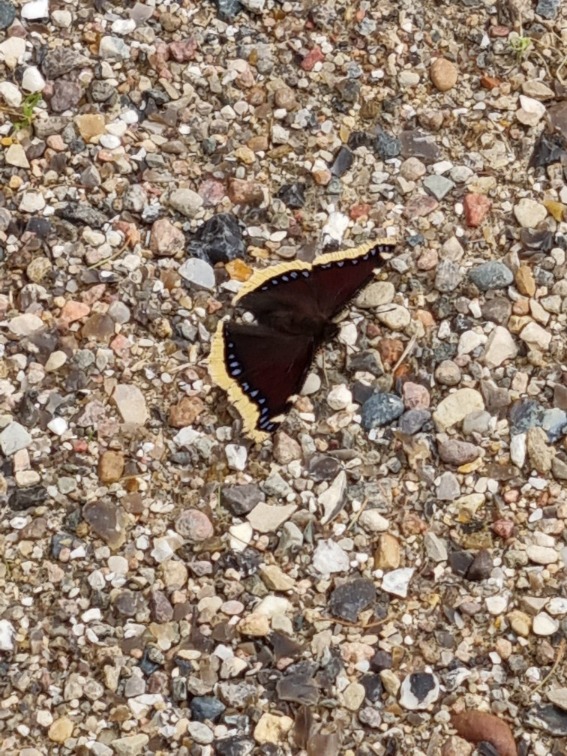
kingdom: Animalia
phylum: Arthropoda
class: Insecta
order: Lepidoptera
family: Nymphalidae
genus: Nymphalis
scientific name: Nymphalis antiopa
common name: Sørgekåbe
